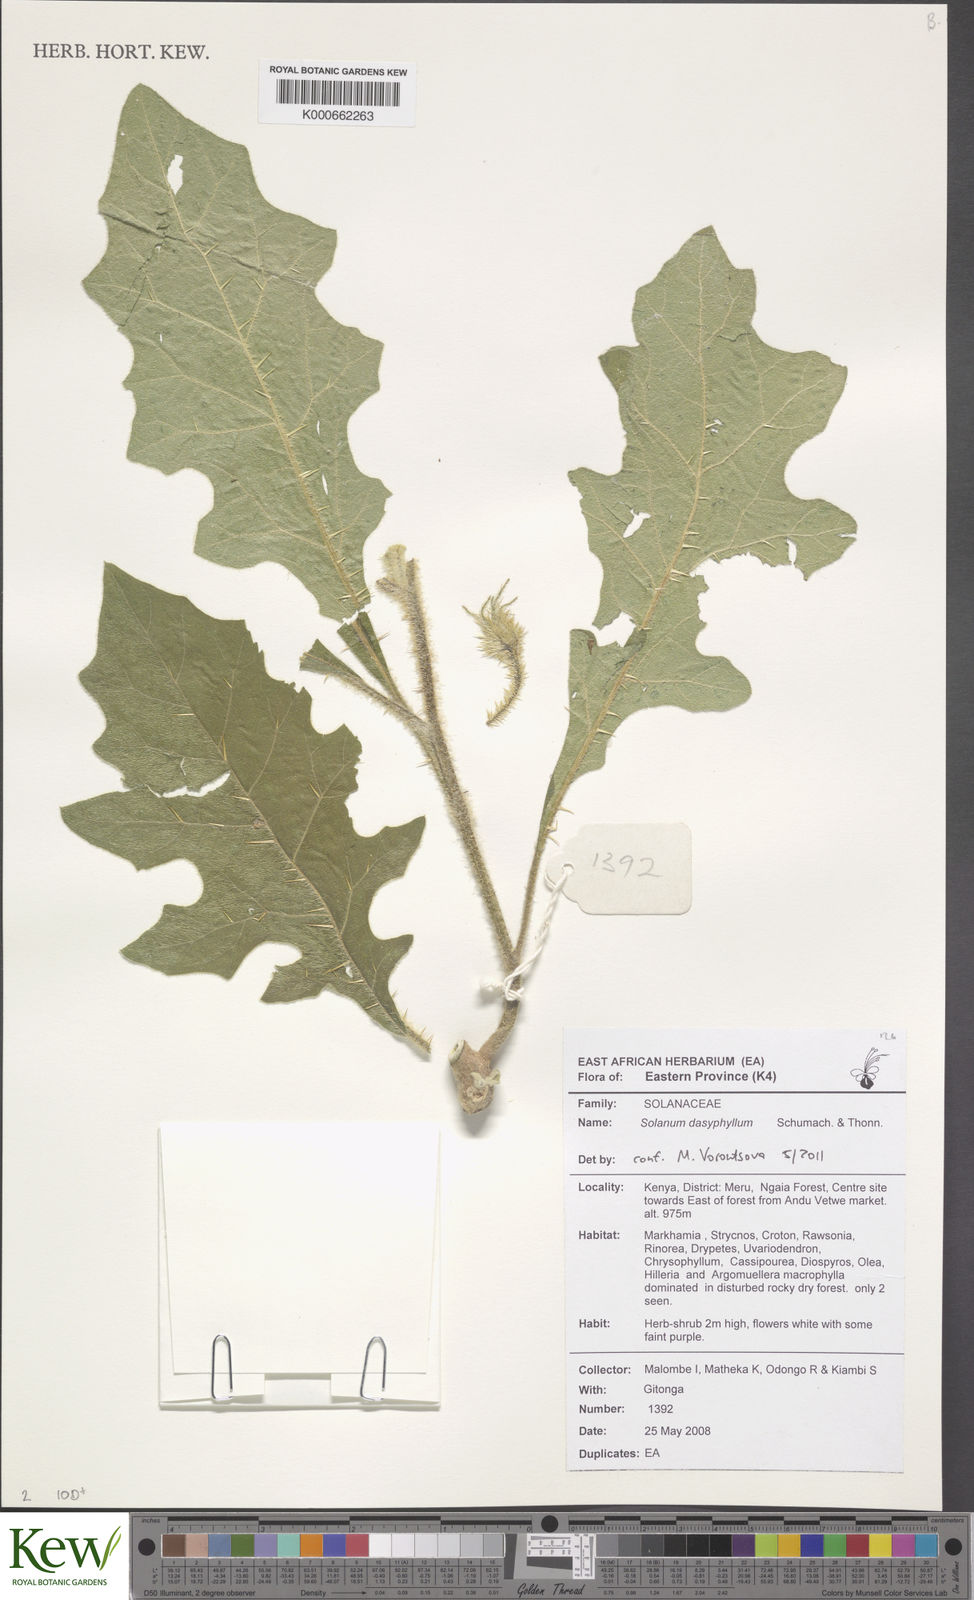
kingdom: Plantae
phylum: Tracheophyta
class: Magnoliopsida
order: Solanales
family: Solanaceae
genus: Solanum
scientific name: Solanum dasyphyllum
